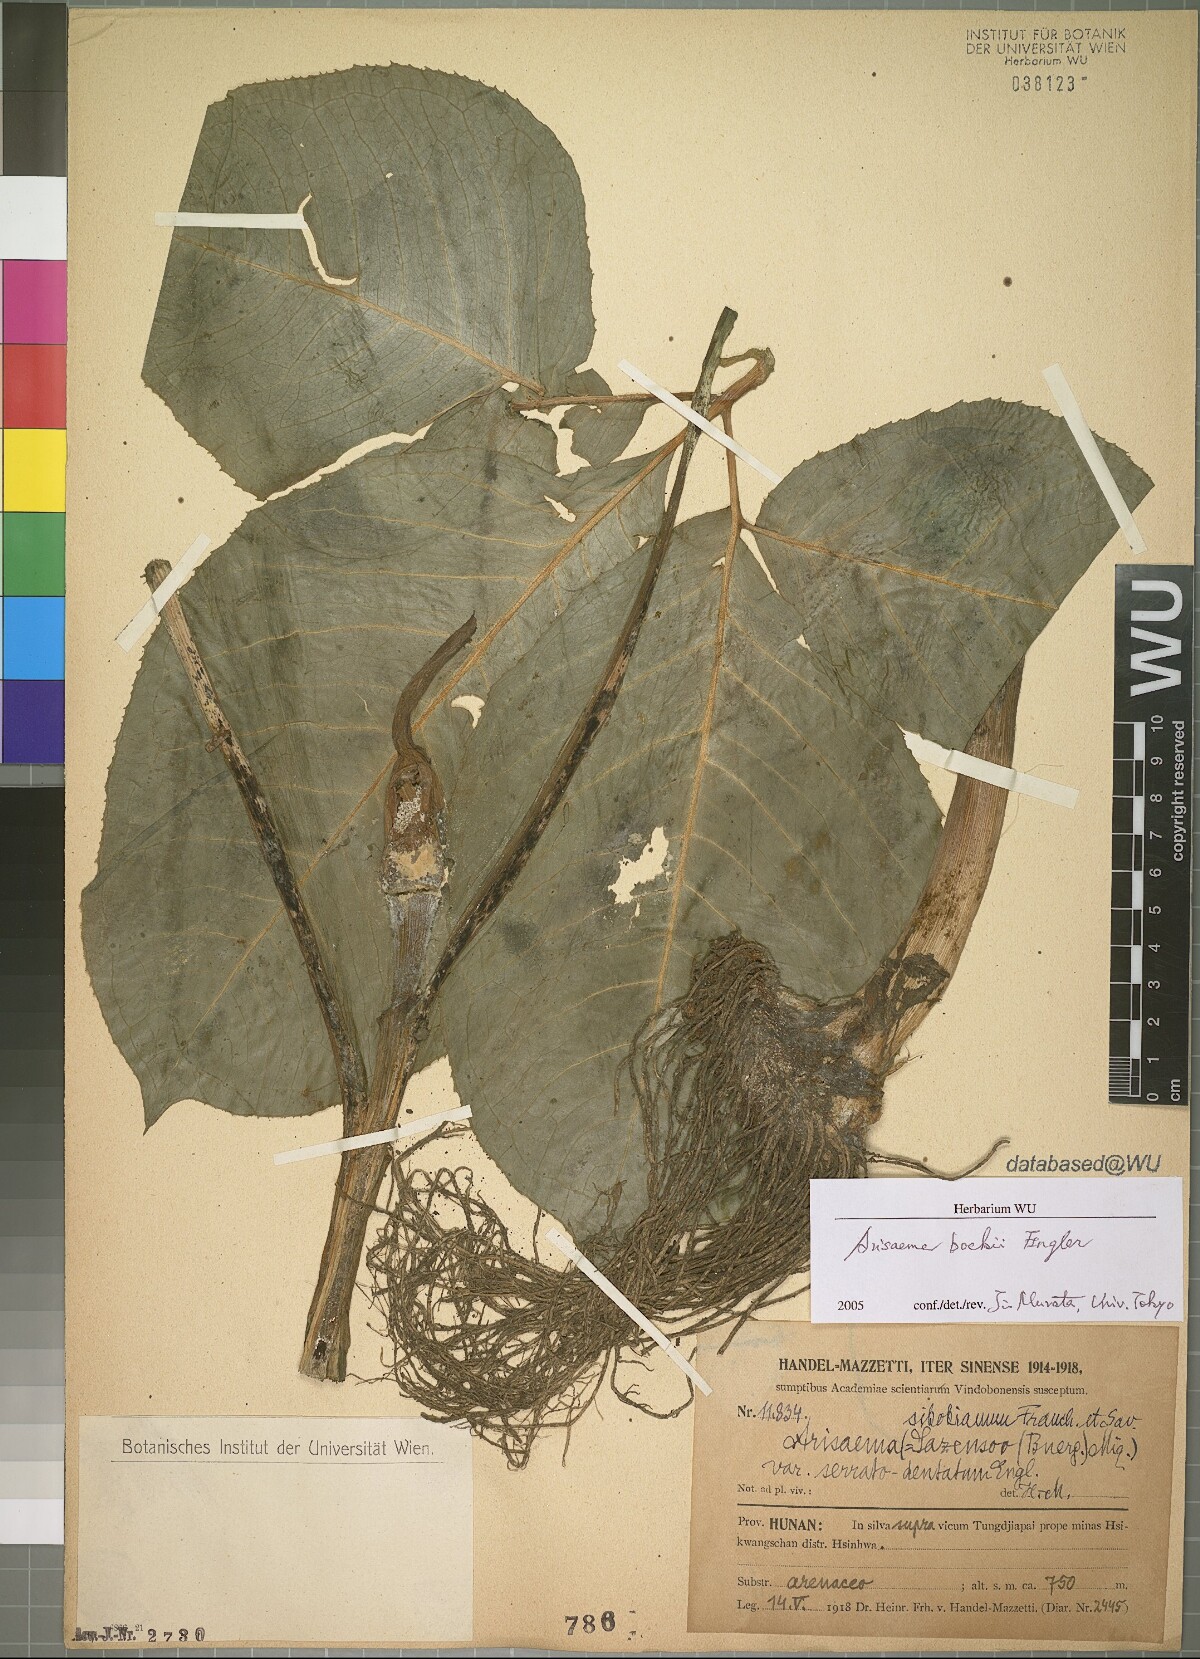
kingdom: Plantae
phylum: Tracheophyta
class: Liliopsida
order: Alismatales
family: Araceae
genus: Arisaema
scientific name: Arisaema bockii
